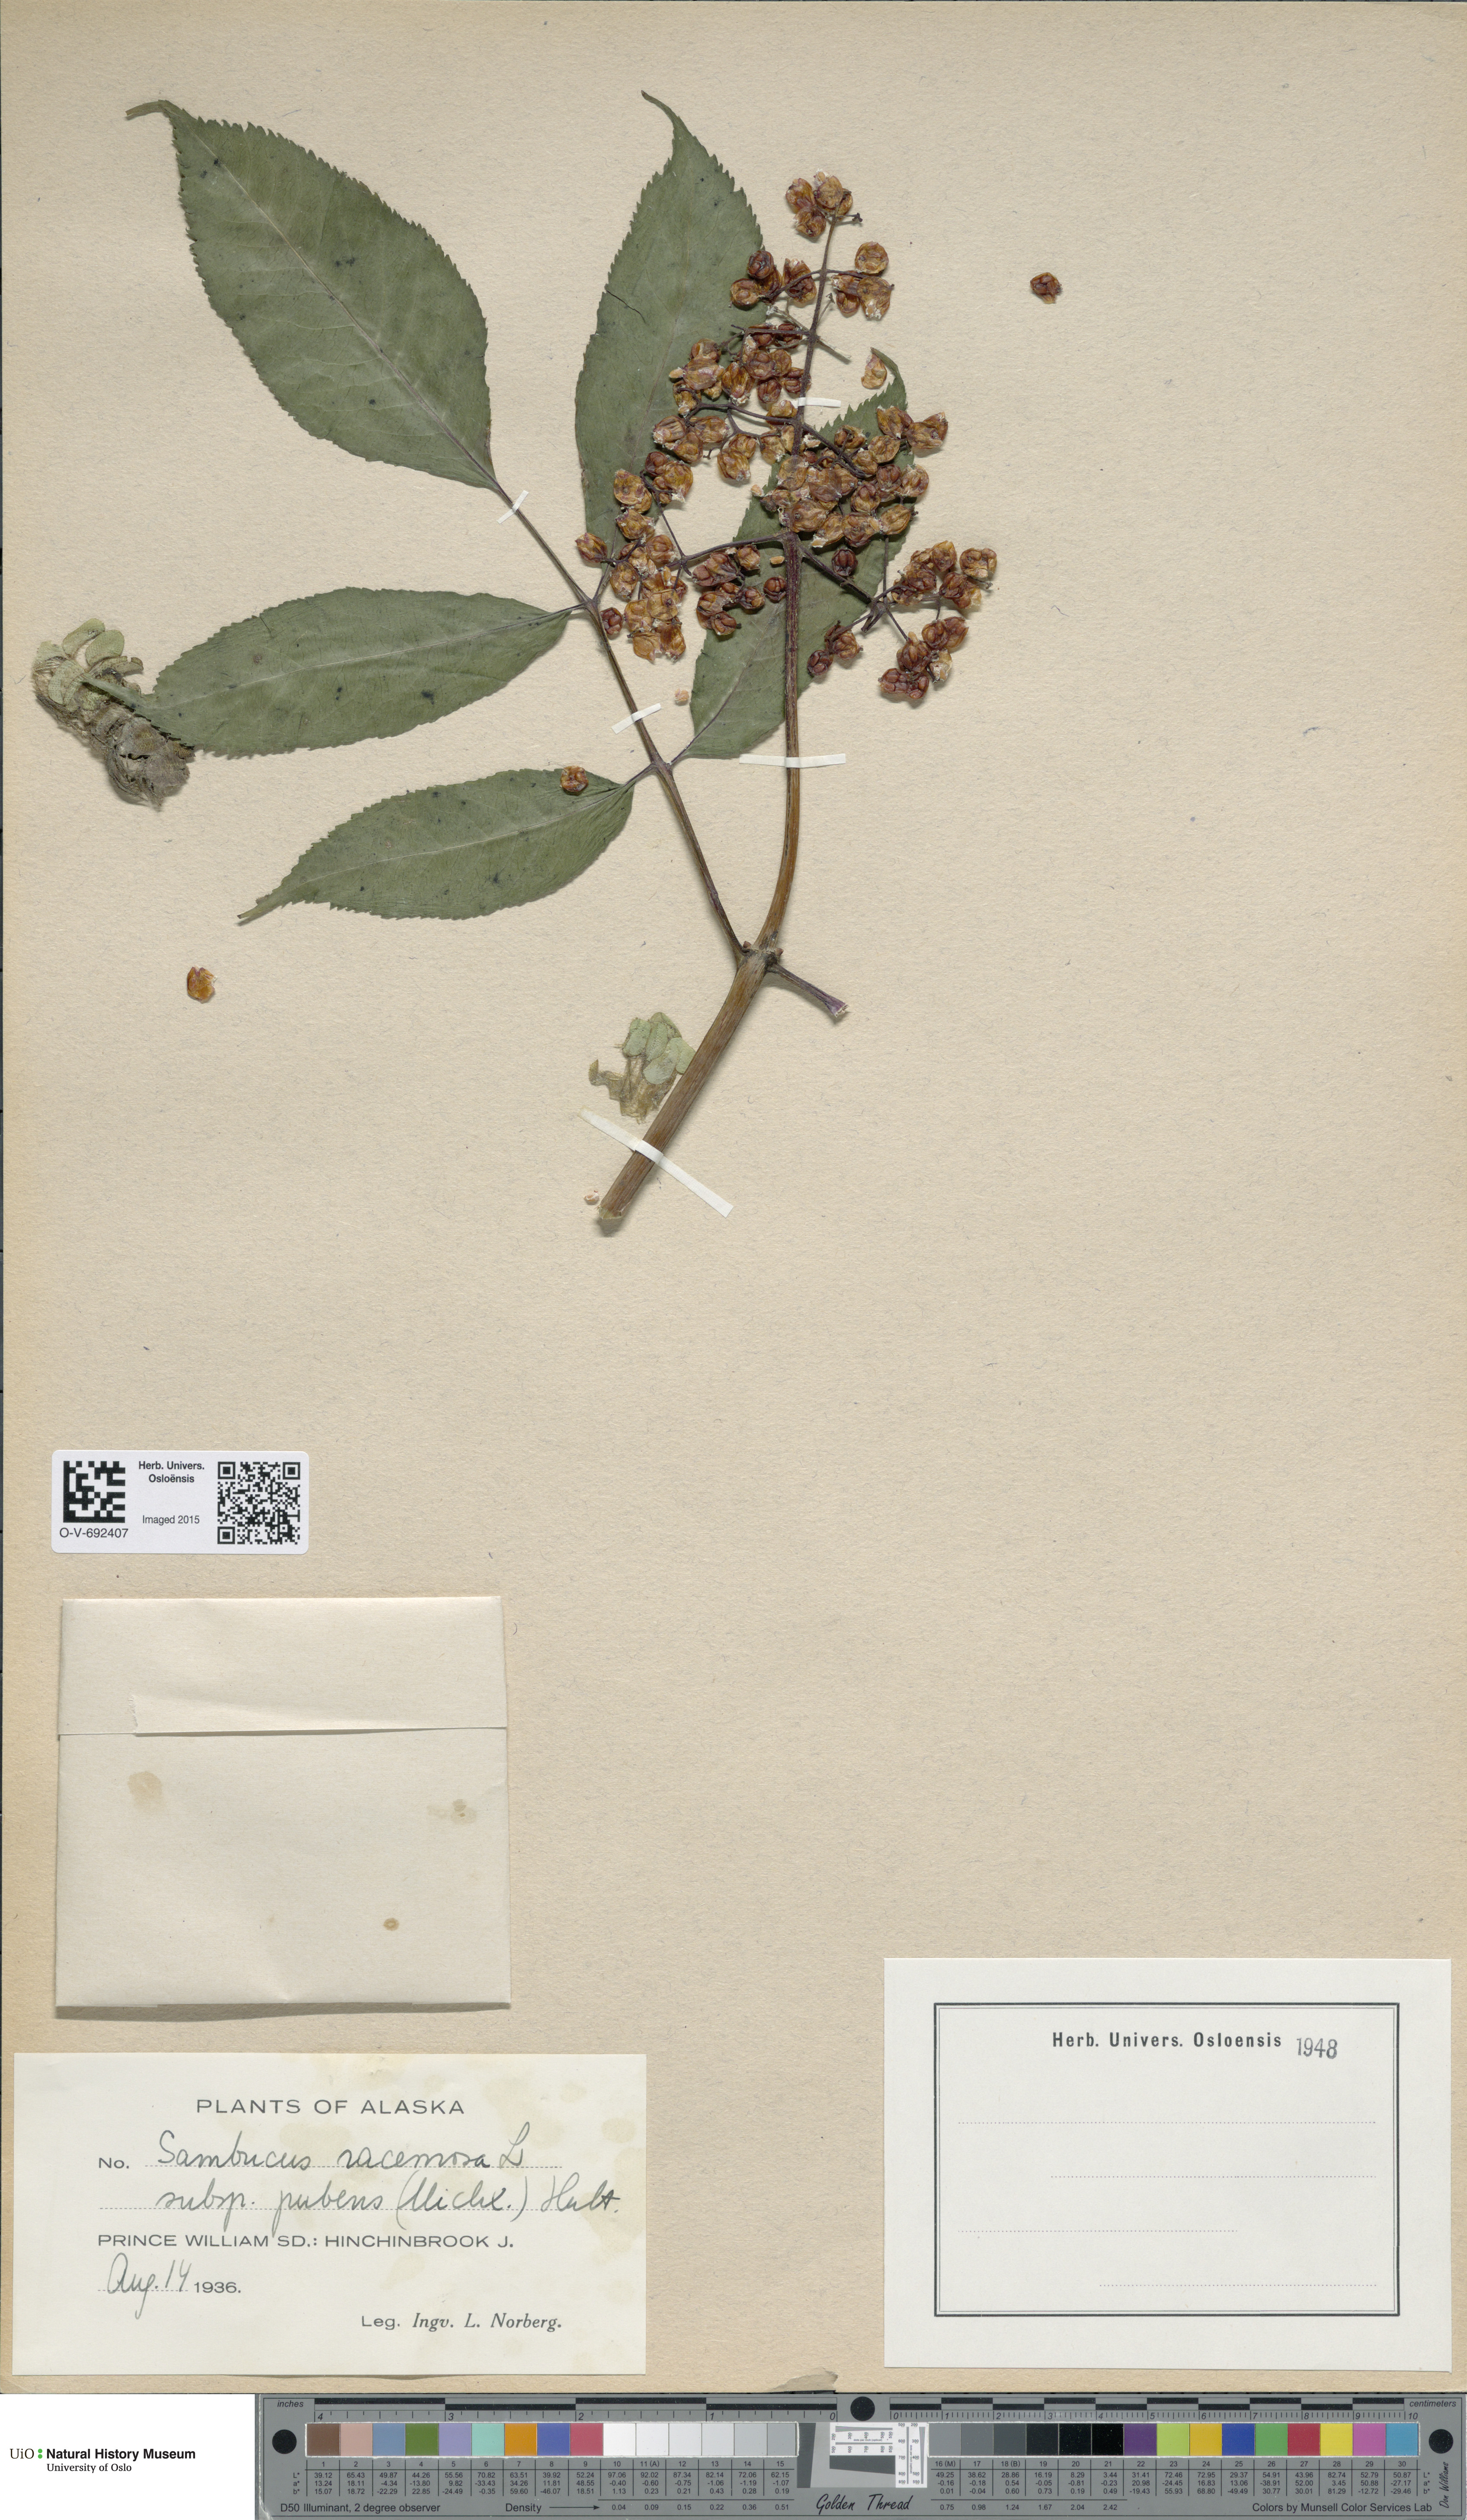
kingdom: Plantae
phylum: Tracheophyta
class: Magnoliopsida
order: Dipsacales
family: Viburnaceae
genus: Sambucus
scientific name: Sambucus racemosa
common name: Red-berried elder
